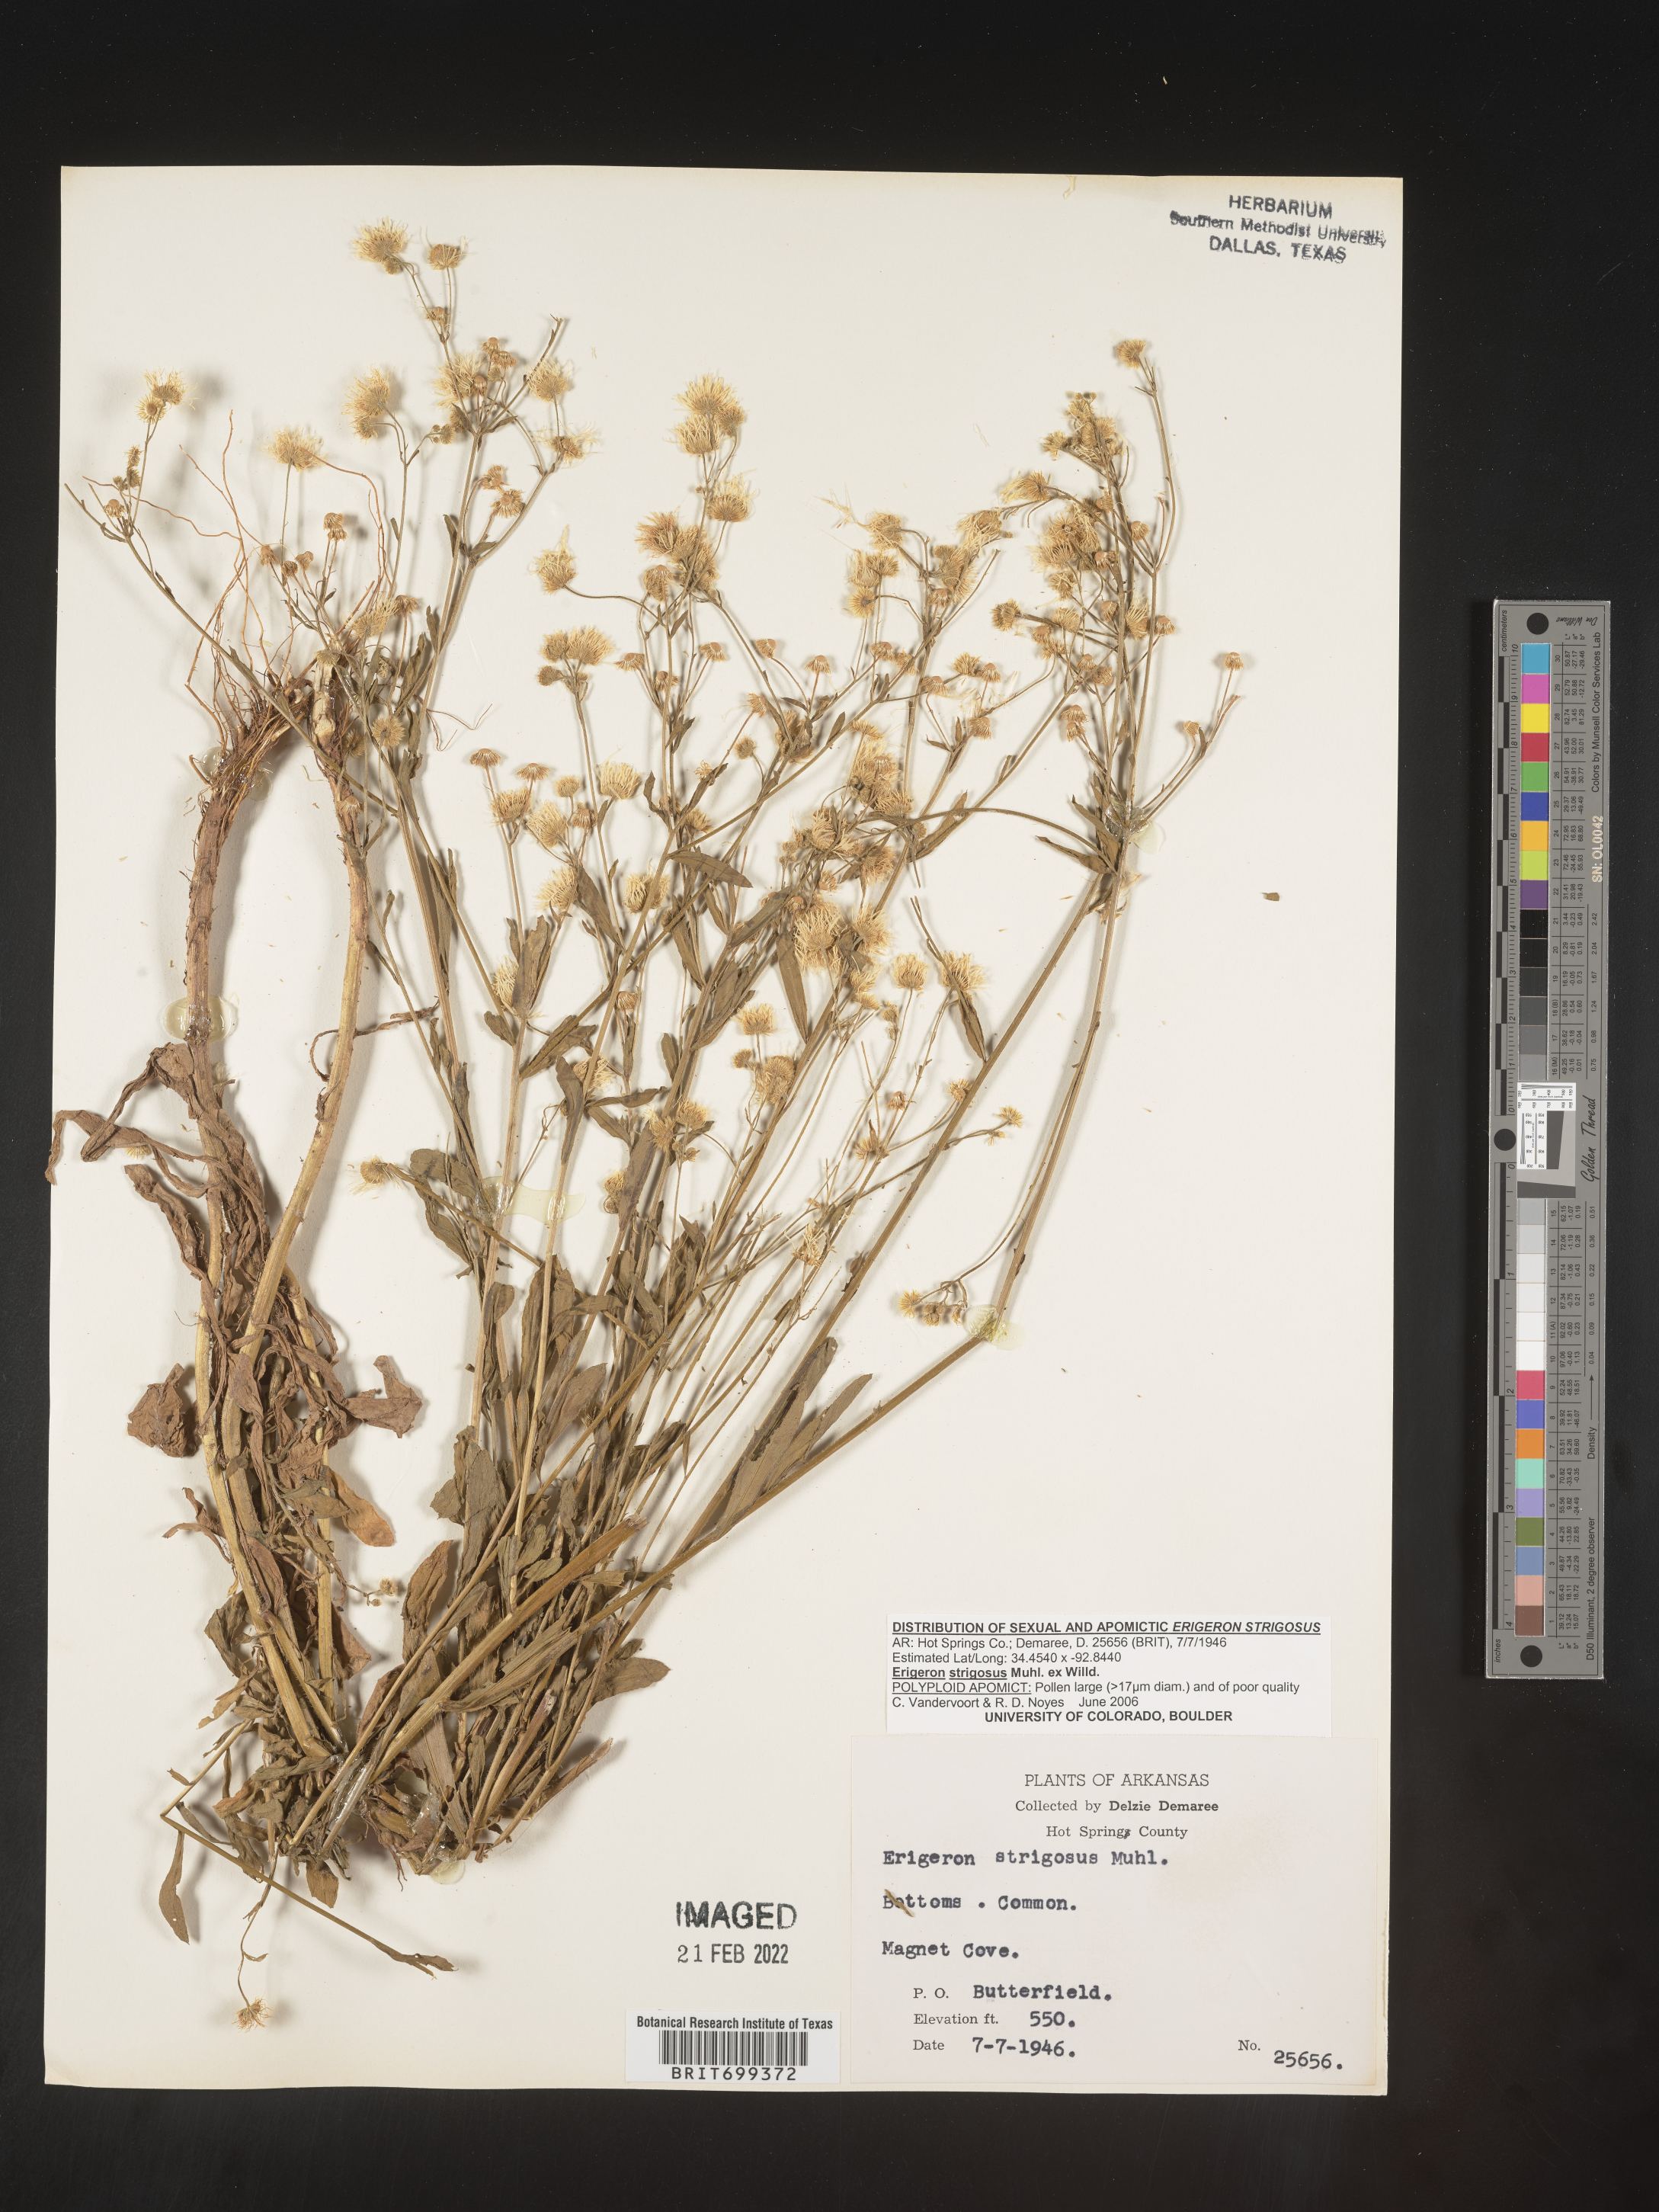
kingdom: Plantae
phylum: Tracheophyta
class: Magnoliopsida
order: Asterales
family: Asteraceae
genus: Erigeron
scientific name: Erigeron strigosus
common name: Common eastern fleabane
